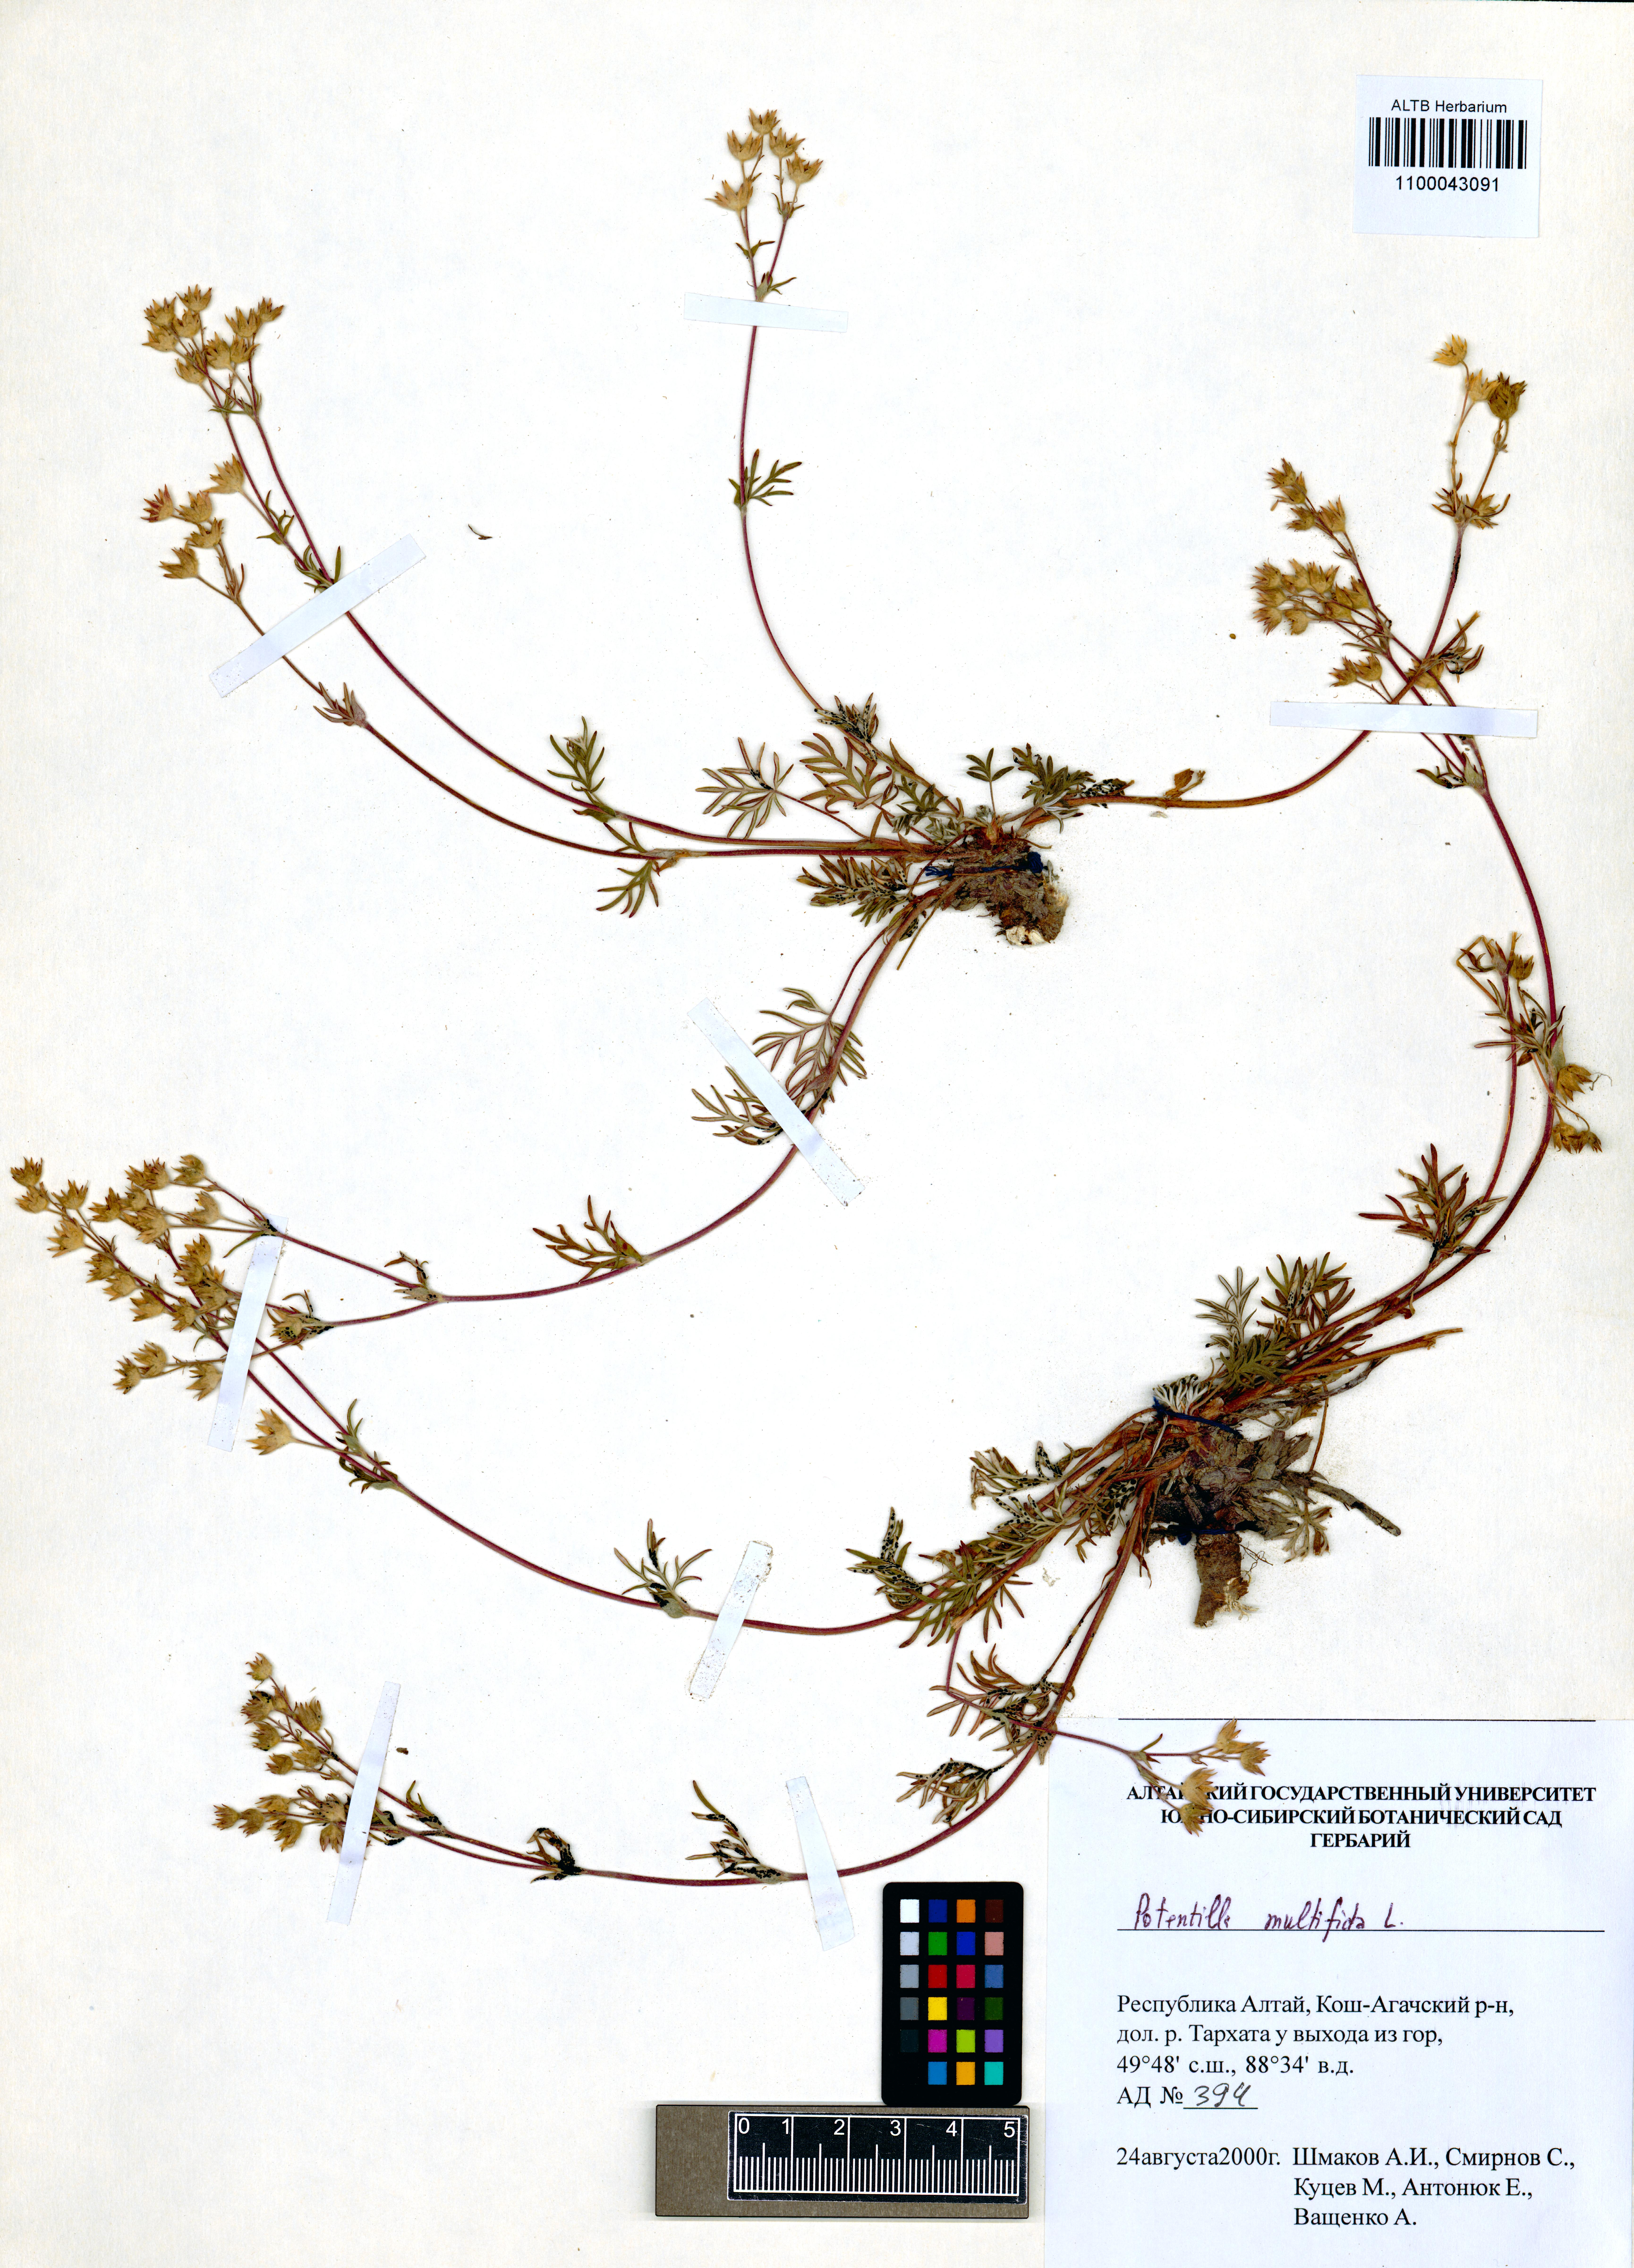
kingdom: Plantae
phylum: Tracheophyta
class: Magnoliopsida
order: Rosales
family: Rosaceae
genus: Potentilla
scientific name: Potentilla multifida
